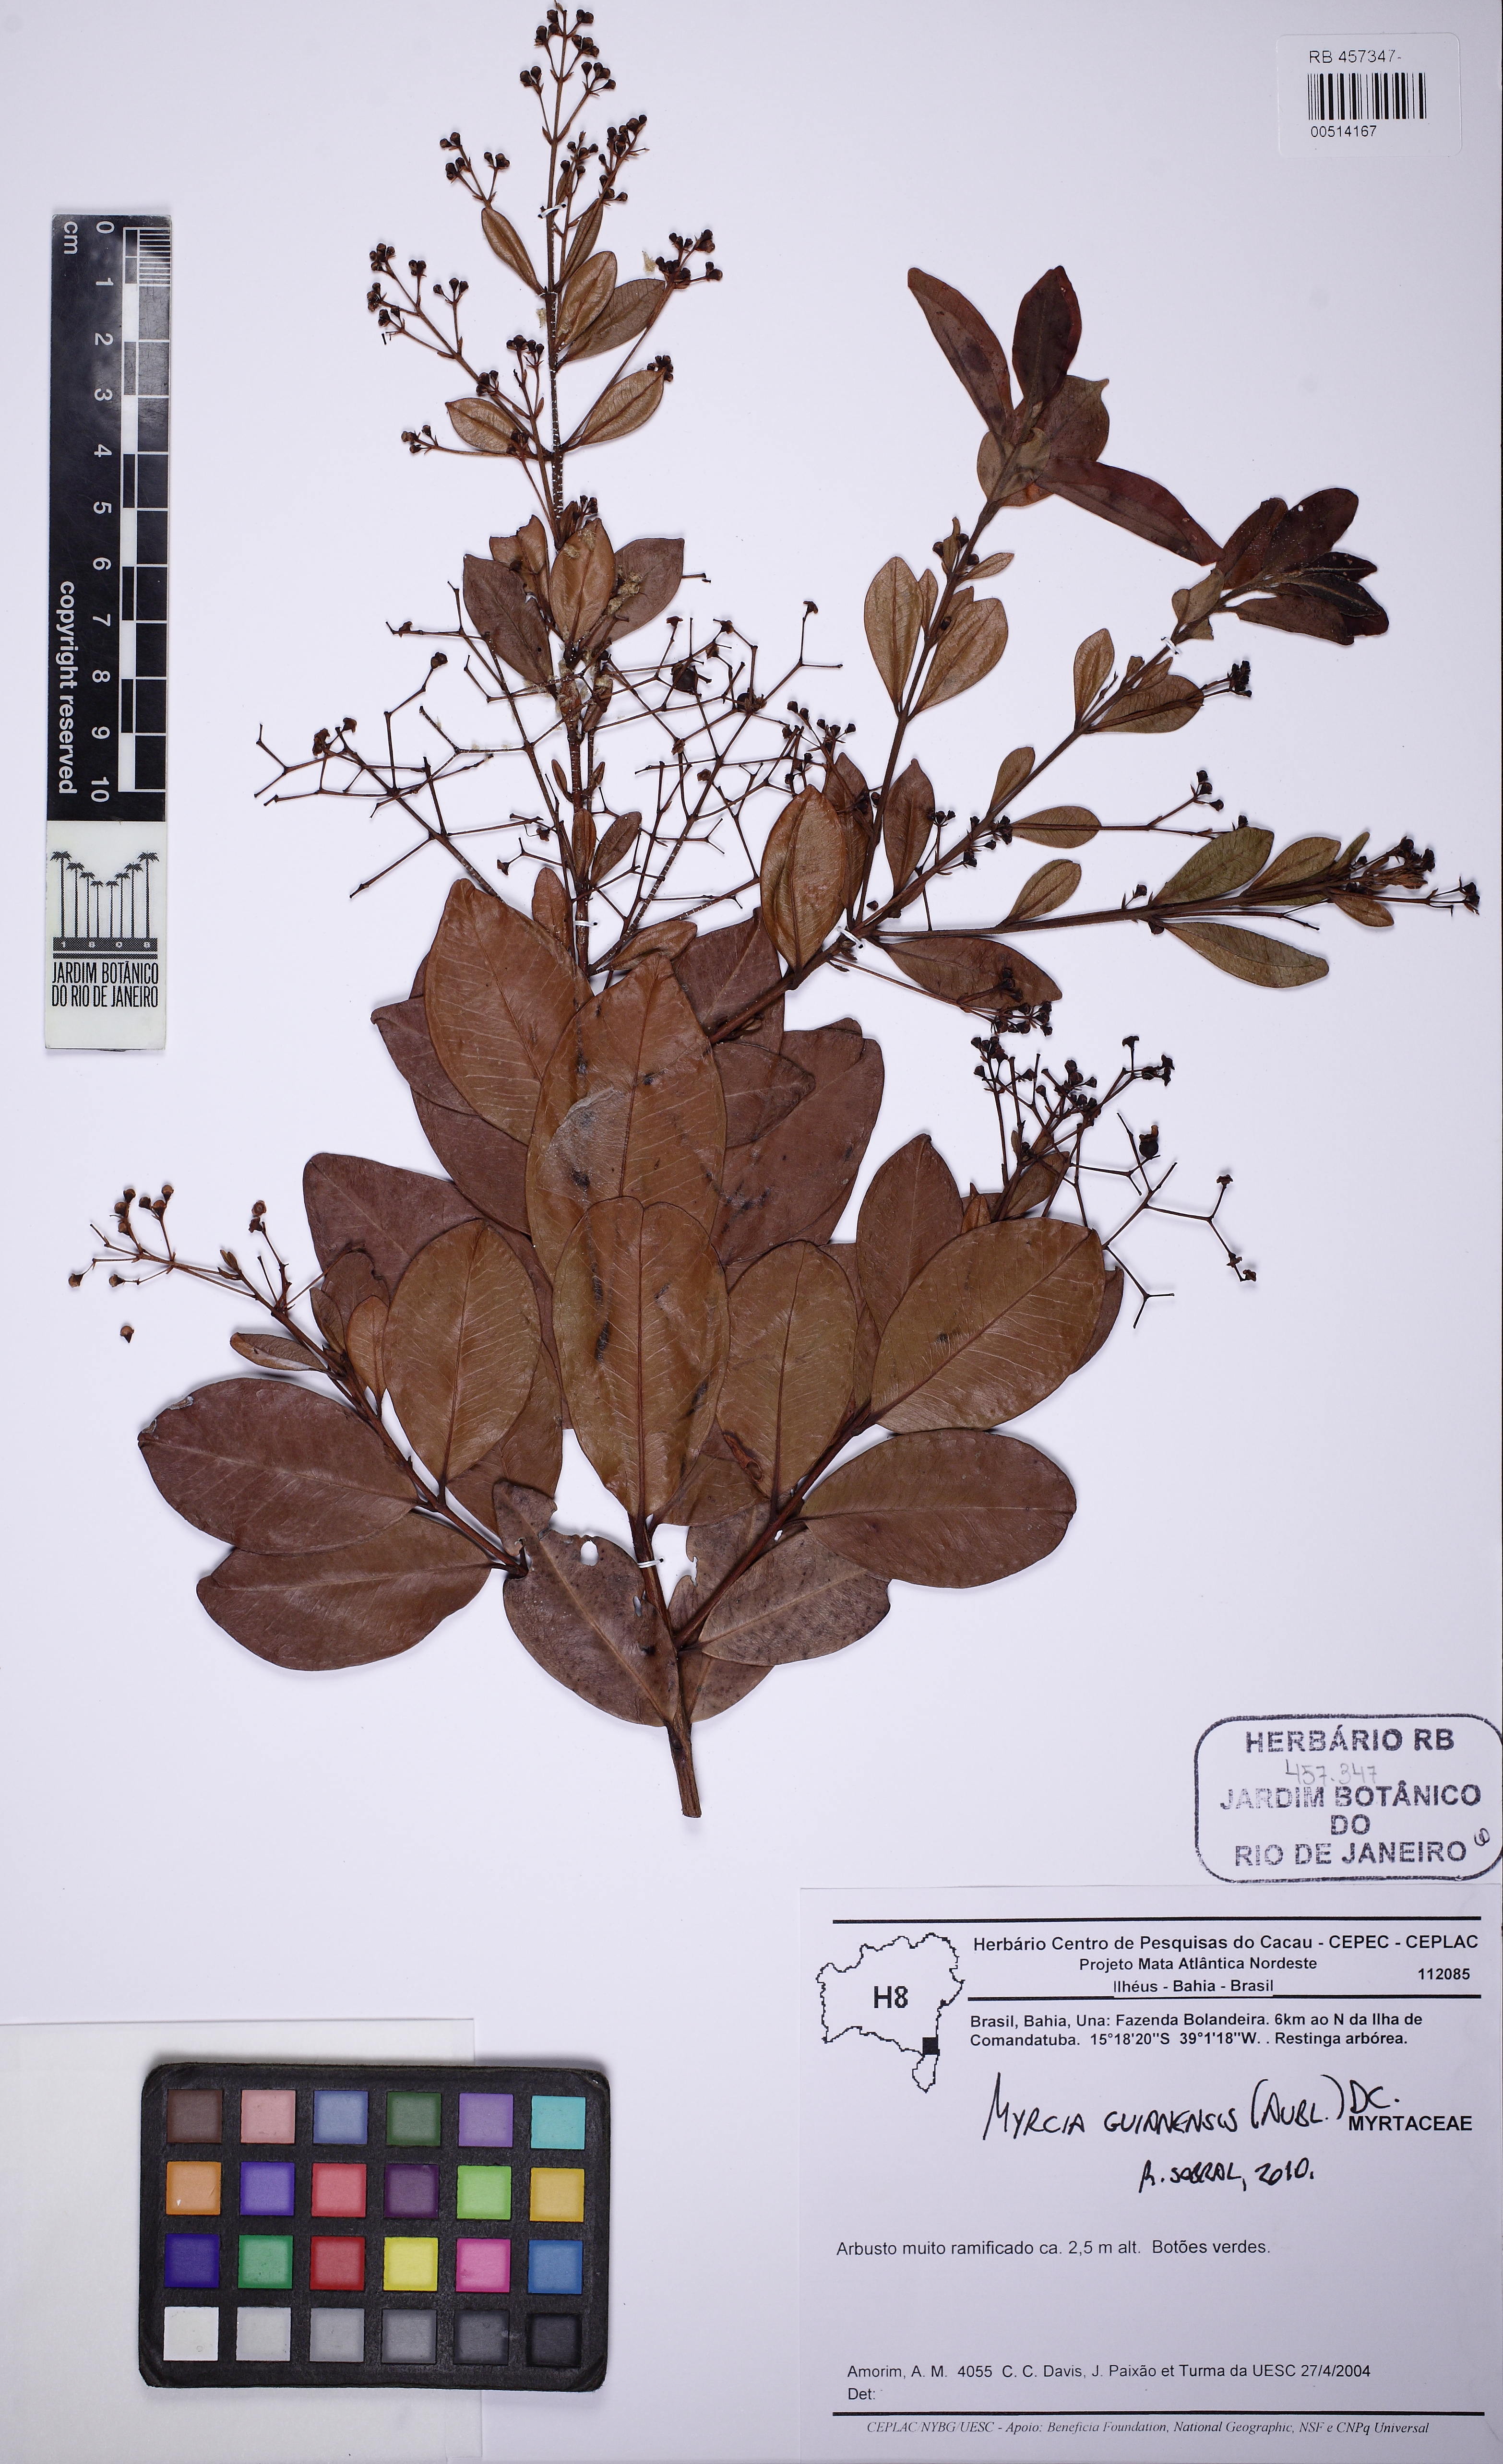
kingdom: Plantae
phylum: Tracheophyta
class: Magnoliopsida
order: Myrtales
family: Myrtaceae
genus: Myrcia
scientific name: Myrcia guianensis
